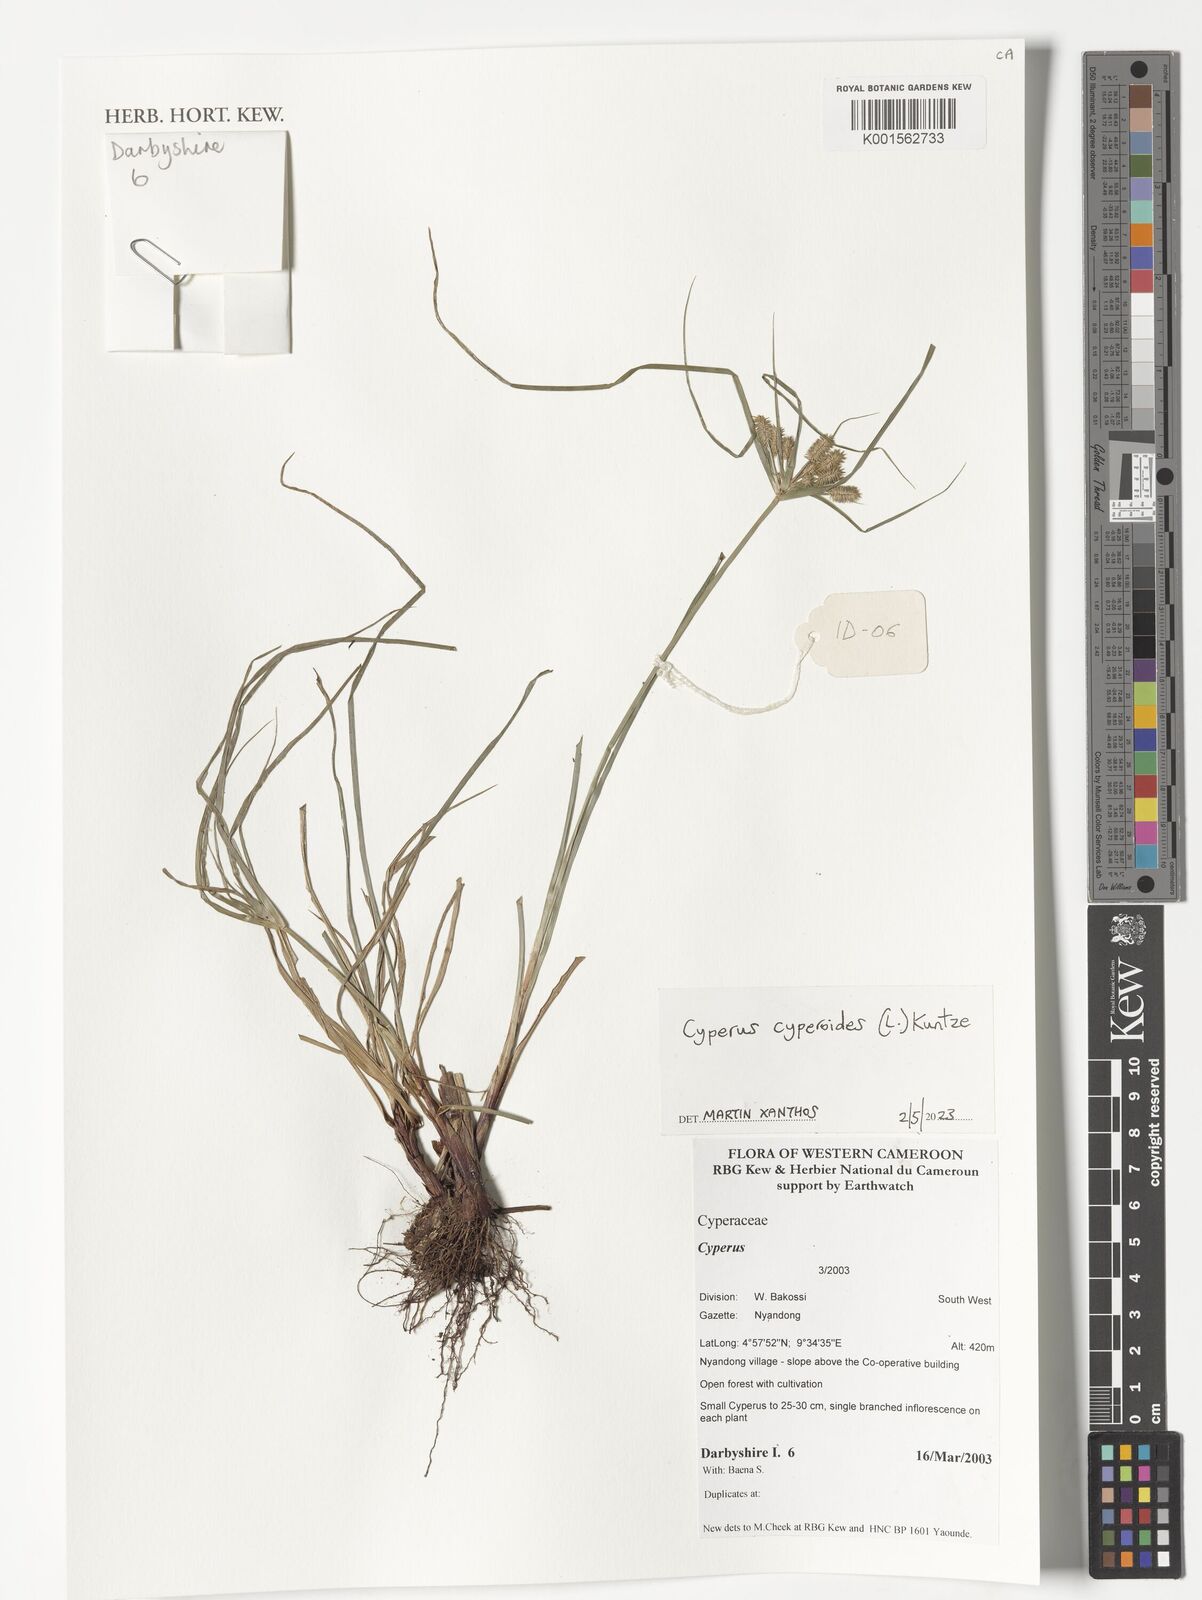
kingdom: Plantae
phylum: Tracheophyta
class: Liliopsida
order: Poales
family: Cyperaceae
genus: Cyperus
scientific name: Cyperus cyperoides
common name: Pacific island flat sedge
